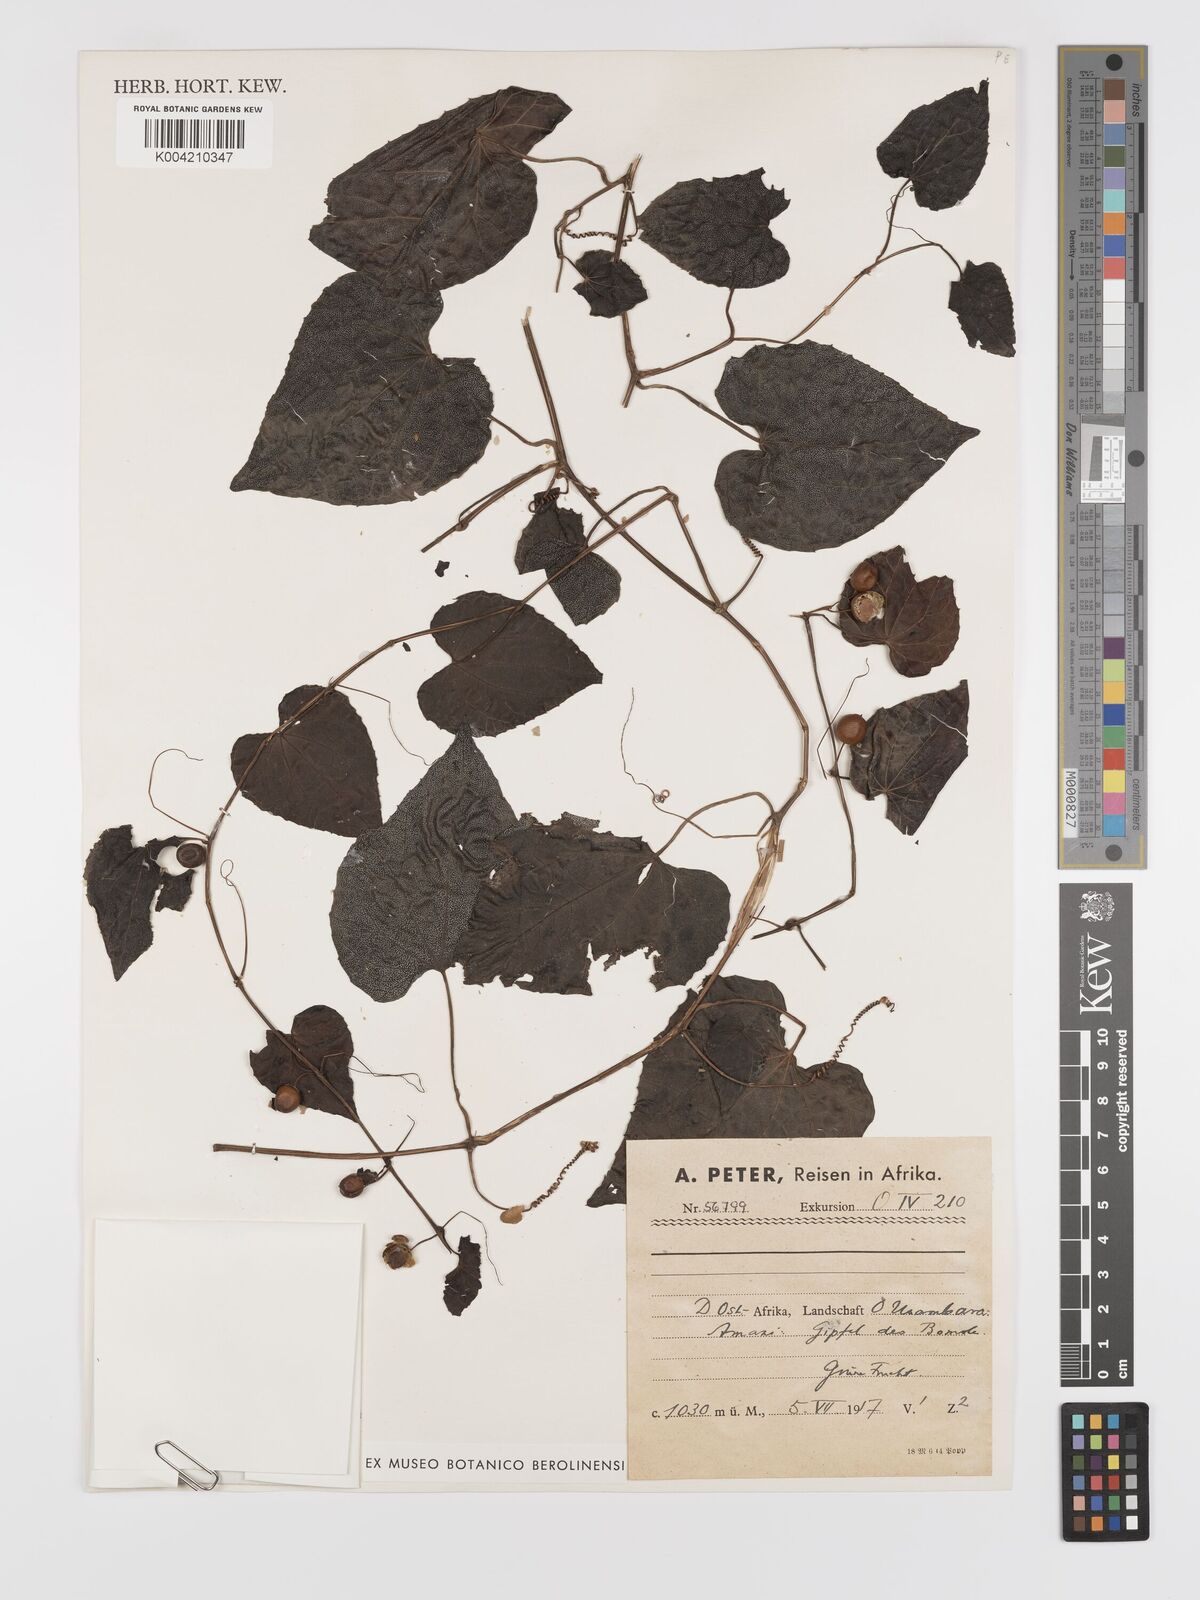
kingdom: Plantae
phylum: Tracheophyta
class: Magnoliopsida
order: Cucurbitales
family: Cucurbitaceae
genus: Zehneria
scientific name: Zehneria emirnensis
